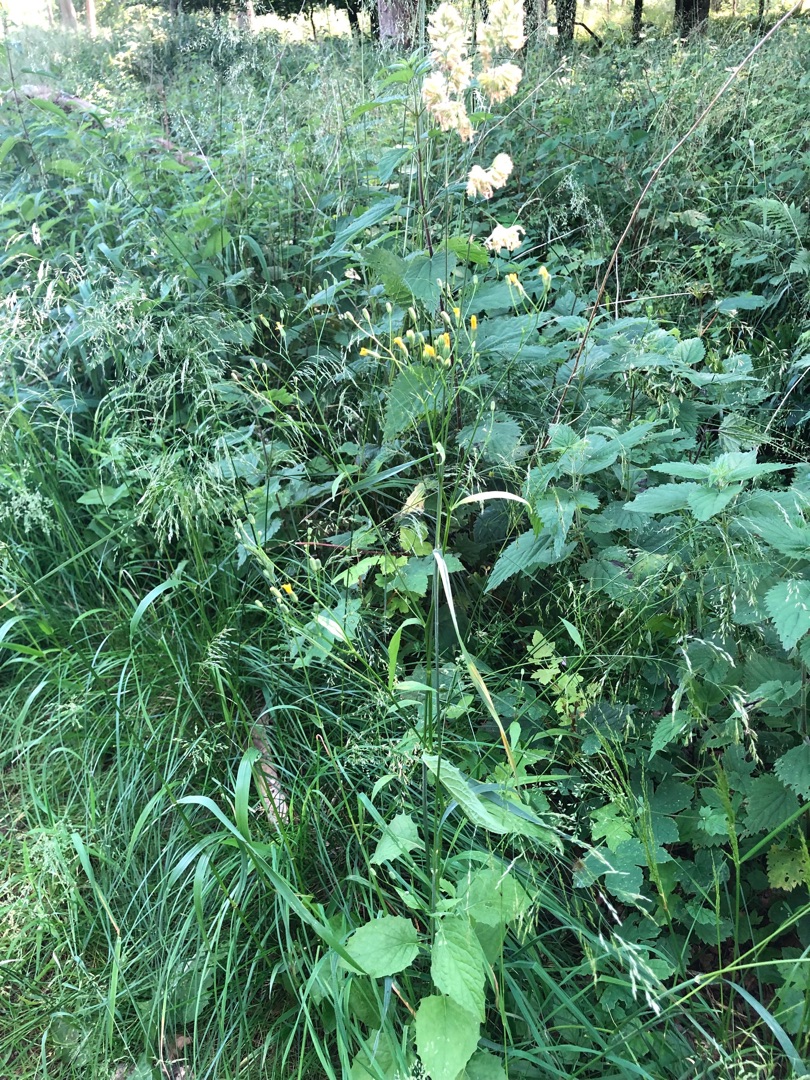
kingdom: Plantae
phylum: Tracheophyta
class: Magnoliopsida
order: Asterales
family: Asteraceae
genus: Lapsana
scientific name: Lapsana communis
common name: Haremad
